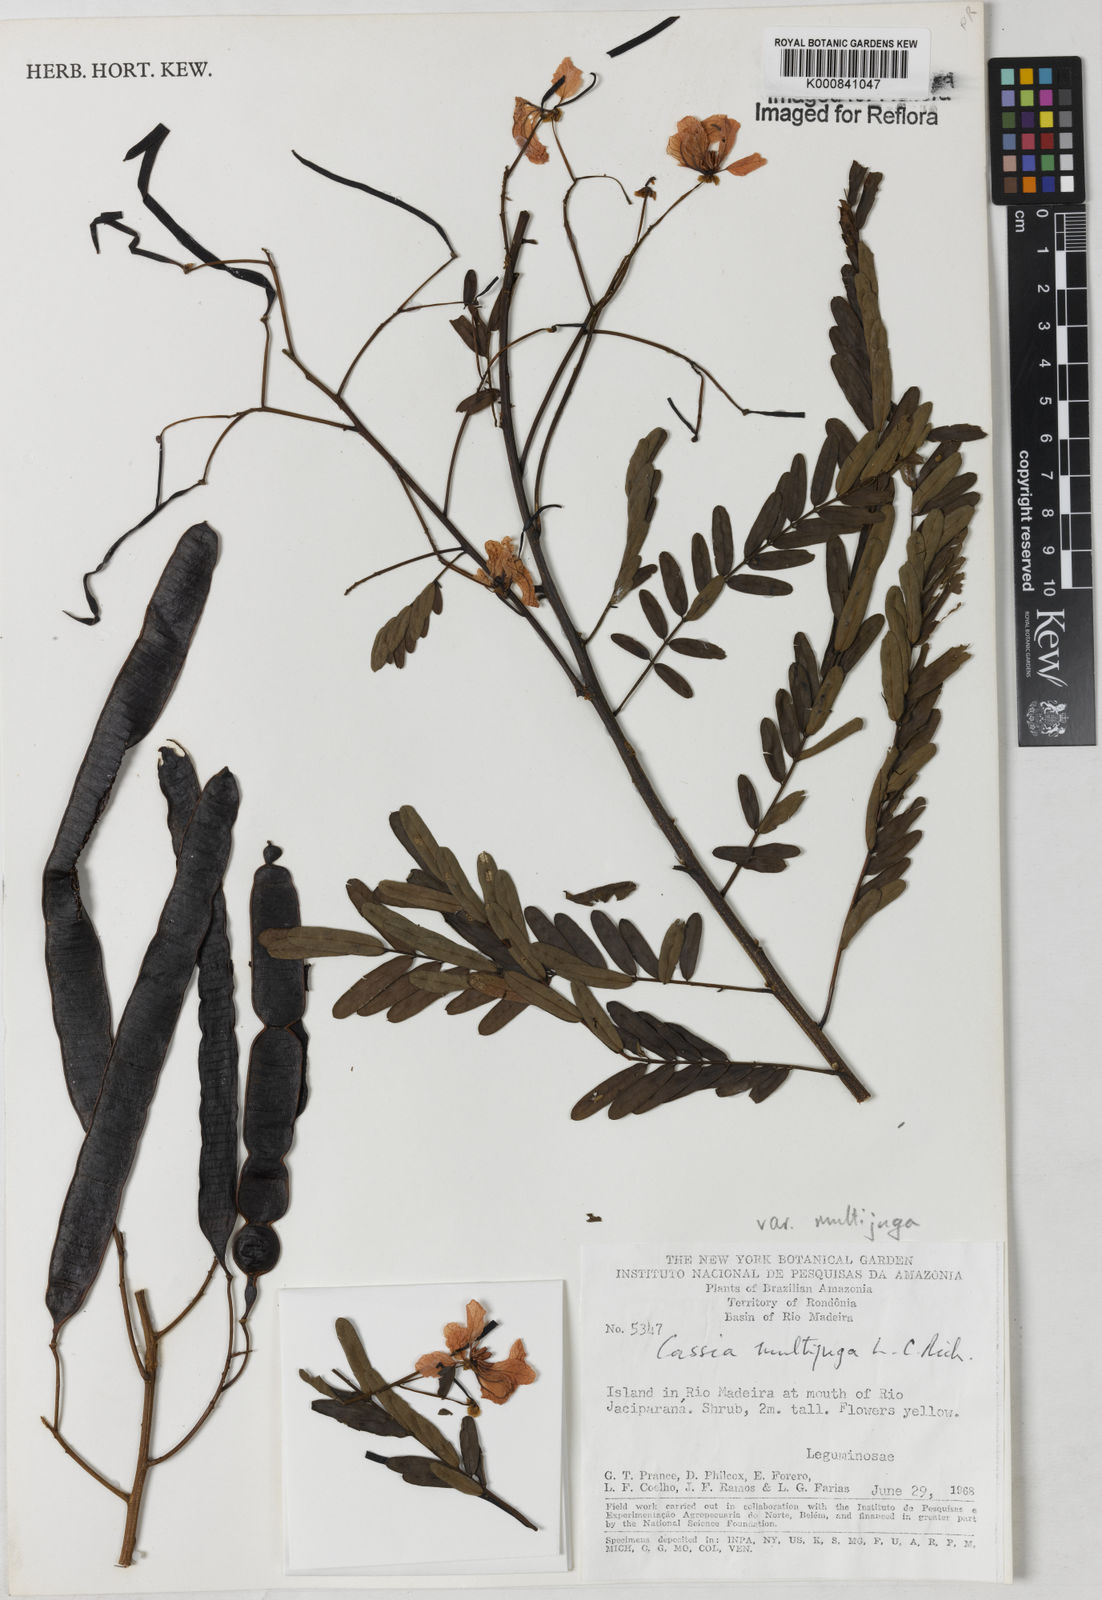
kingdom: Plantae
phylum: Tracheophyta
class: Magnoliopsida
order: Fabales
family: Fabaceae
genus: Senna
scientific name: Senna multijuga
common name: False sicklepod
